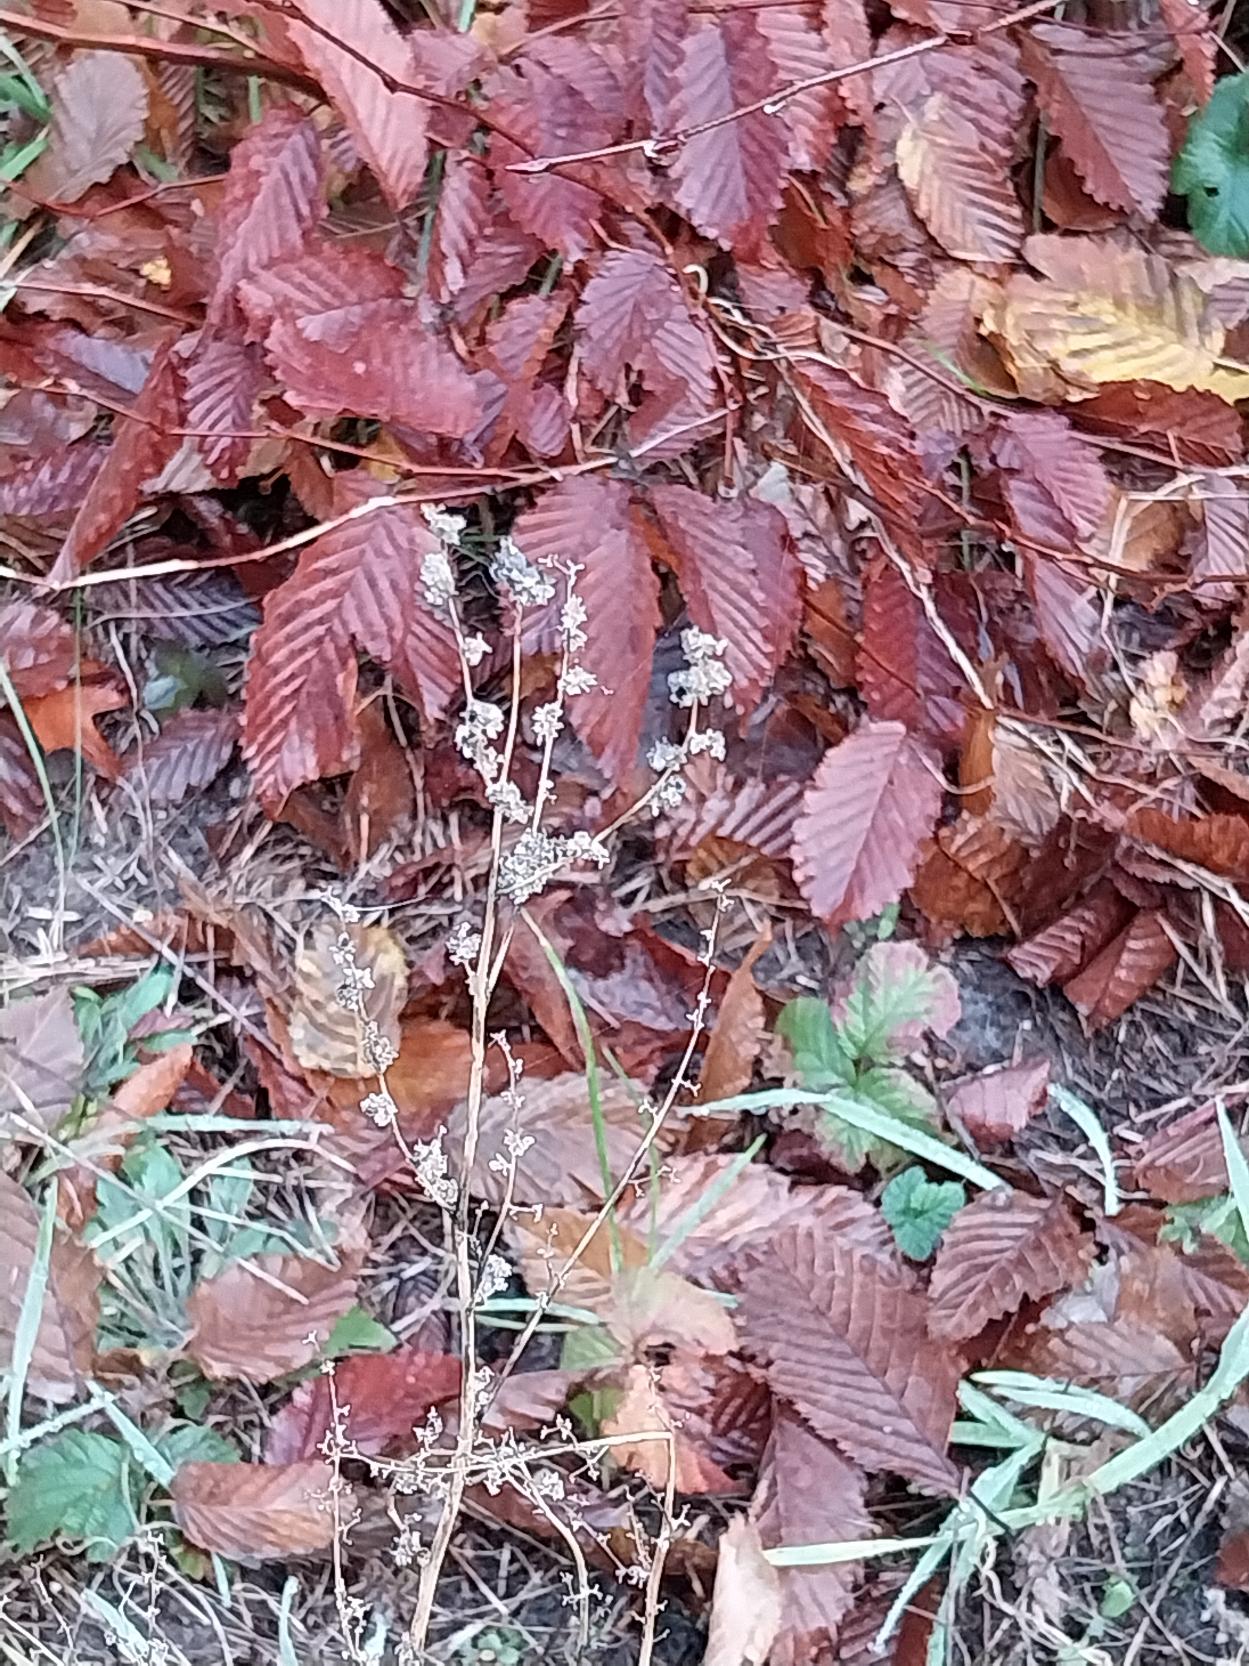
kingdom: Plantae
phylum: Tracheophyta
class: Magnoliopsida
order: Caryophyllales
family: Amaranthaceae
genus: Chenopodium
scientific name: Chenopodium album
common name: Hvidmelet gåsefod
